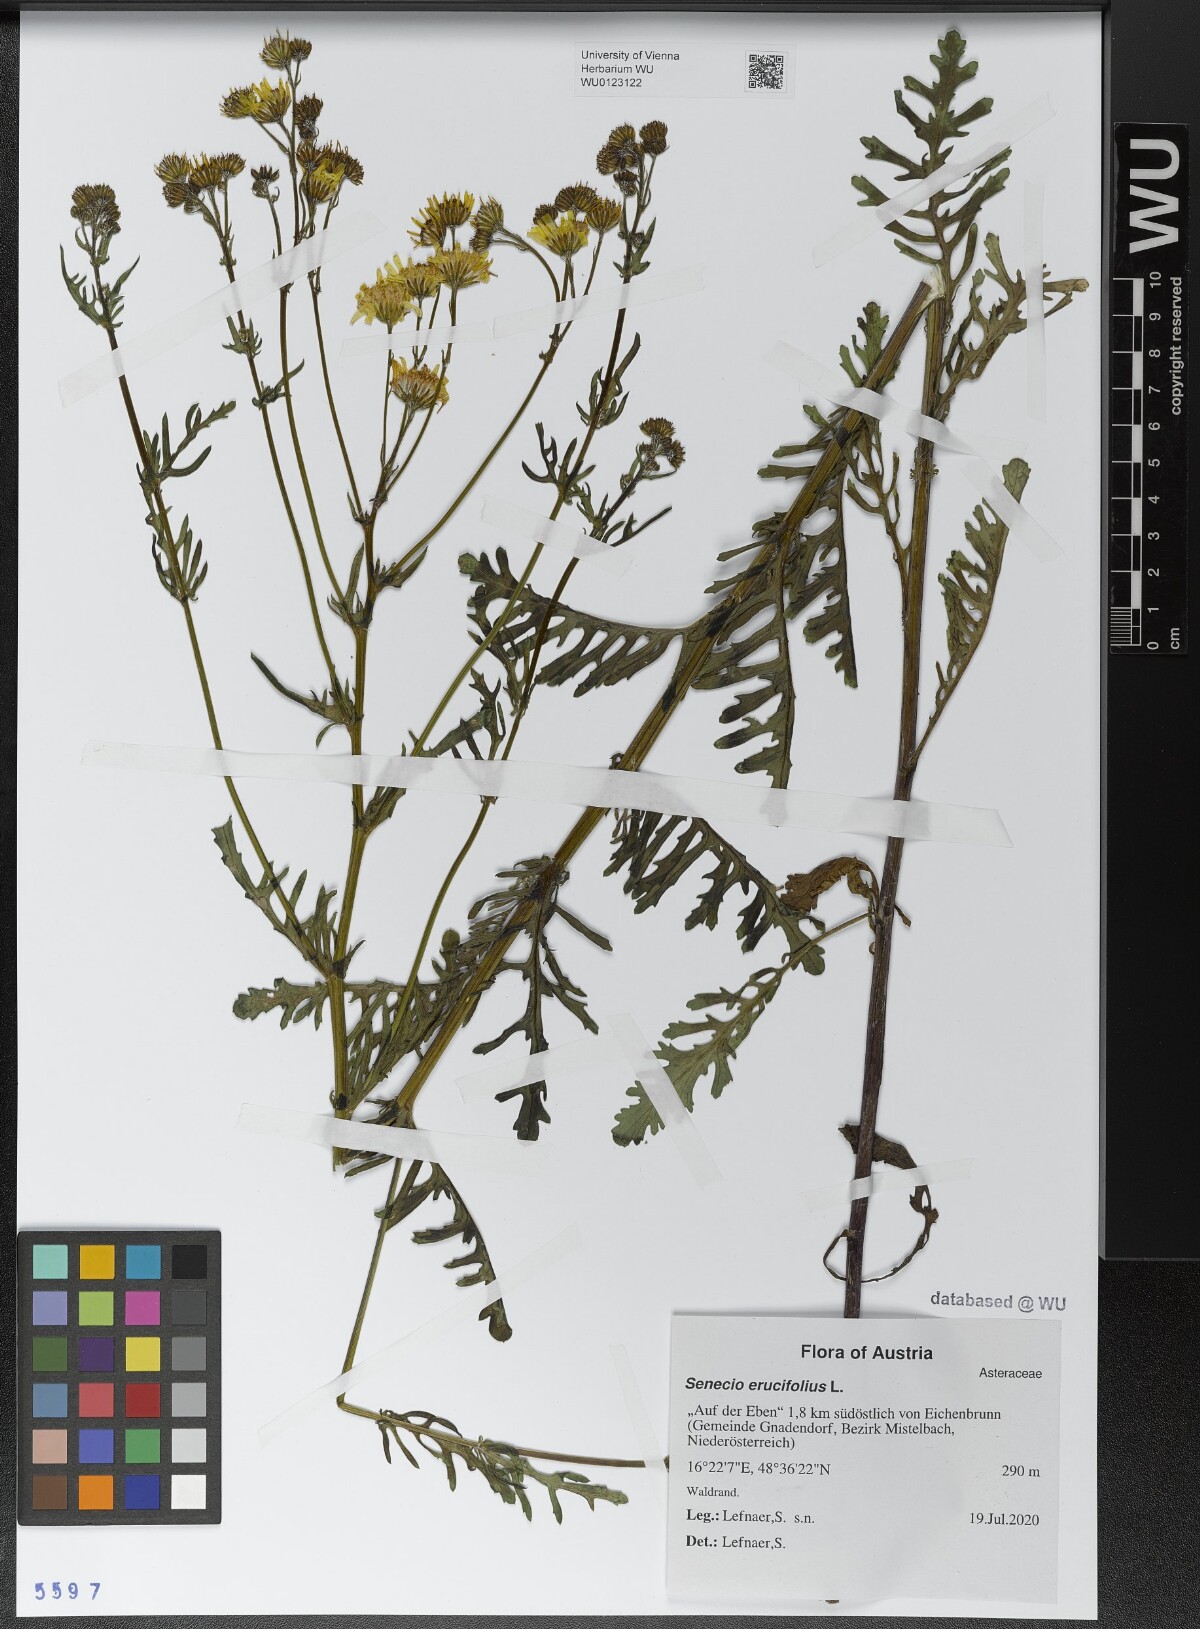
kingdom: Plantae
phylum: Tracheophyta
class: Magnoliopsida
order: Asterales
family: Asteraceae
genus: Jacobaea
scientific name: Jacobaea erucifolia
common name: Hoary ragwort
